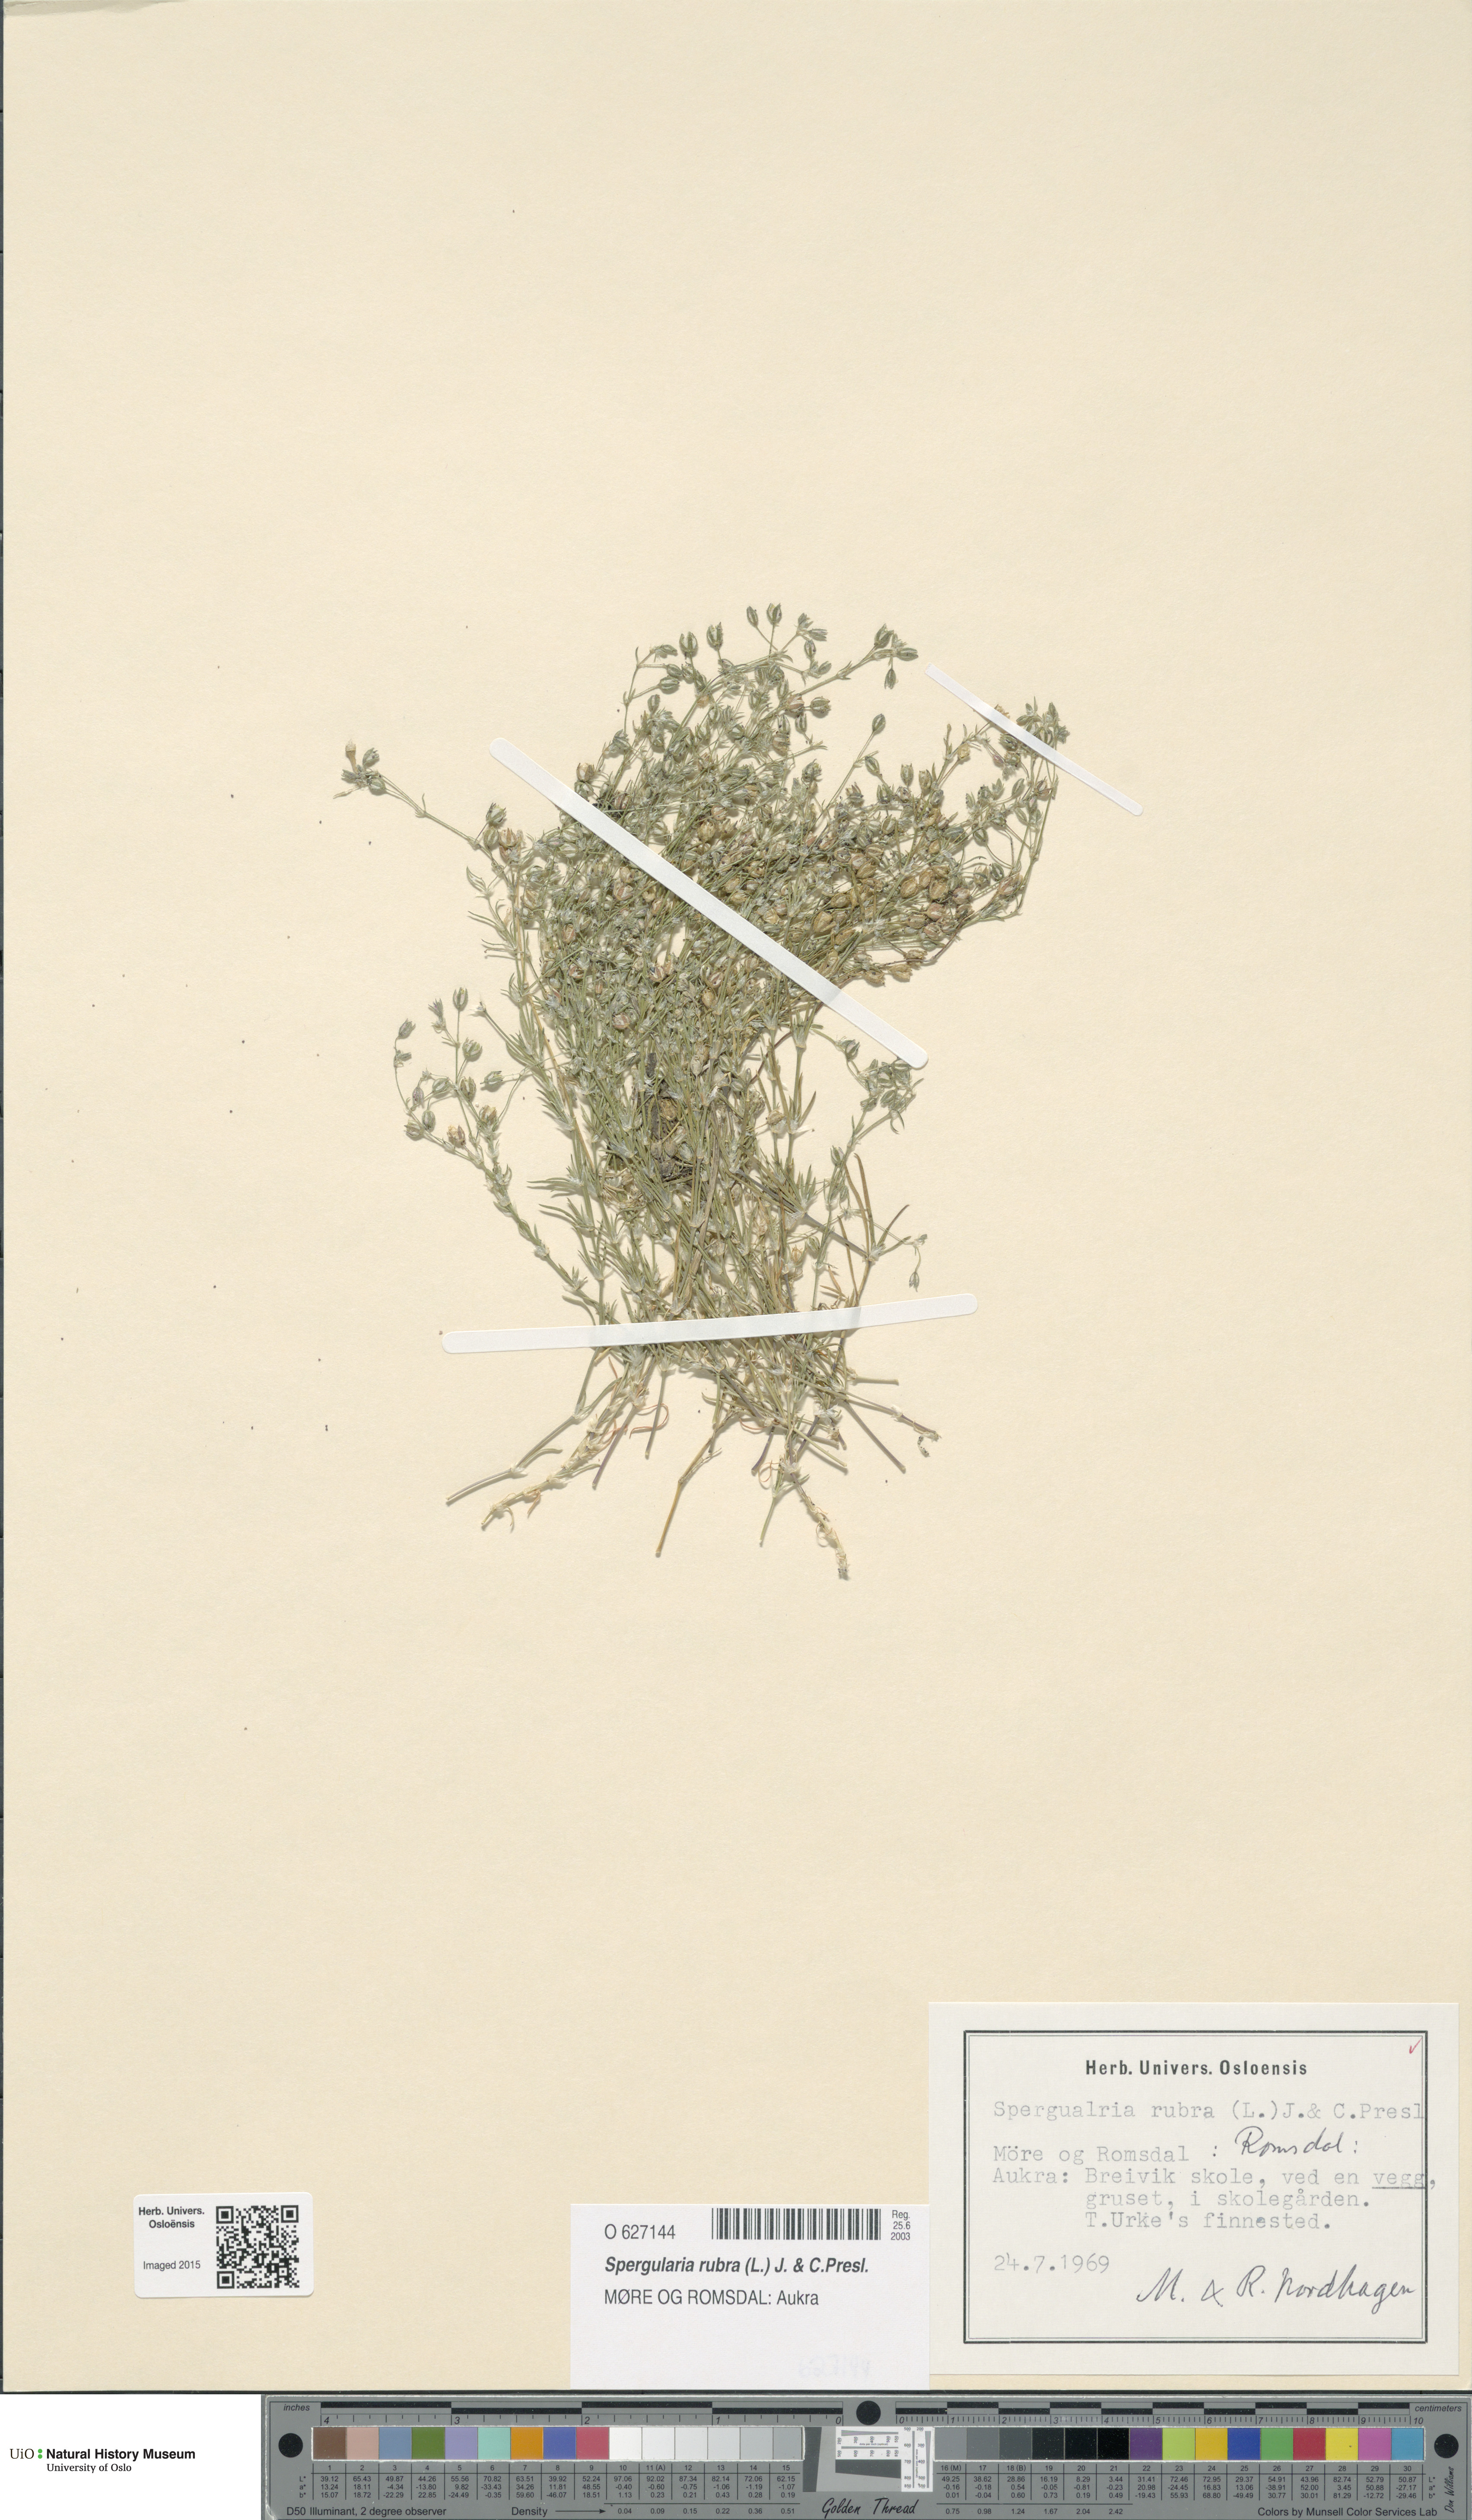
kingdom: Plantae
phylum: Tracheophyta
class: Magnoliopsida
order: Caryophyllales
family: Caryophyllaceae
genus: Spergularia
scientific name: Spergularia rubra
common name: Red sand-spurrey
